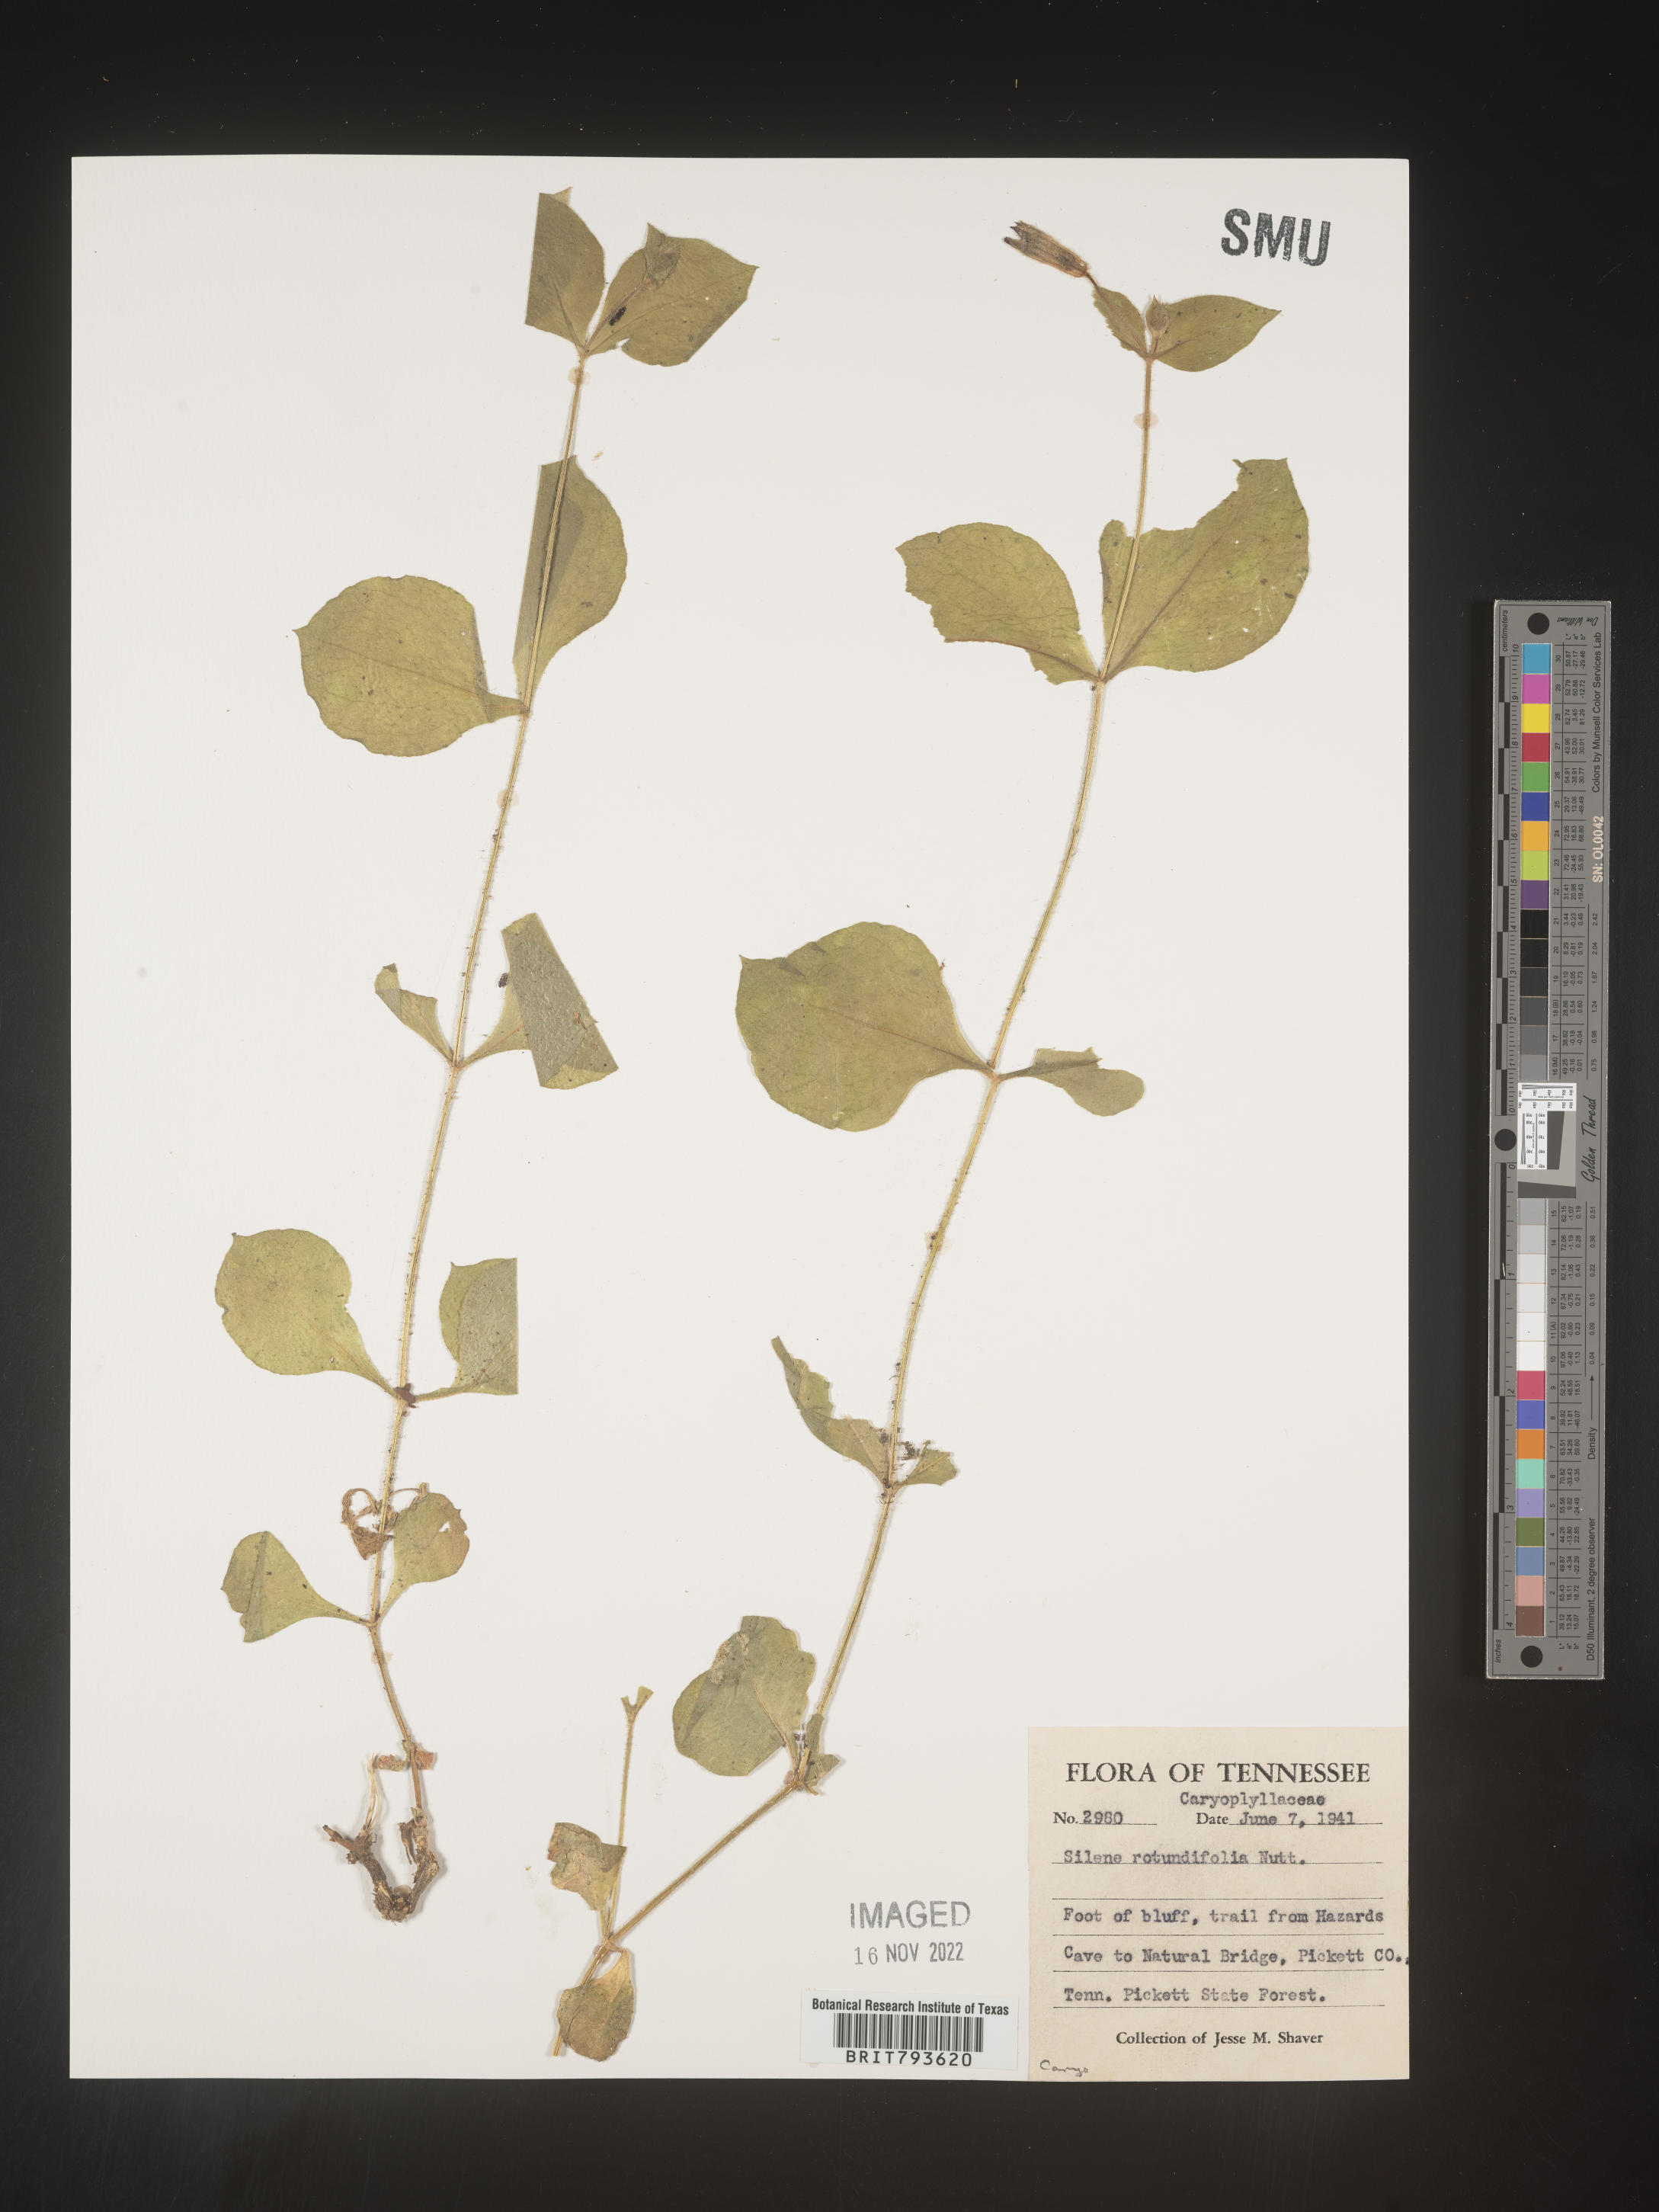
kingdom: Plantae
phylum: Tracheophyta
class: Magnoliopsida
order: Caryophyllales
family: Caryophyllaceae
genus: Silene
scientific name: Silene rotundifolia
